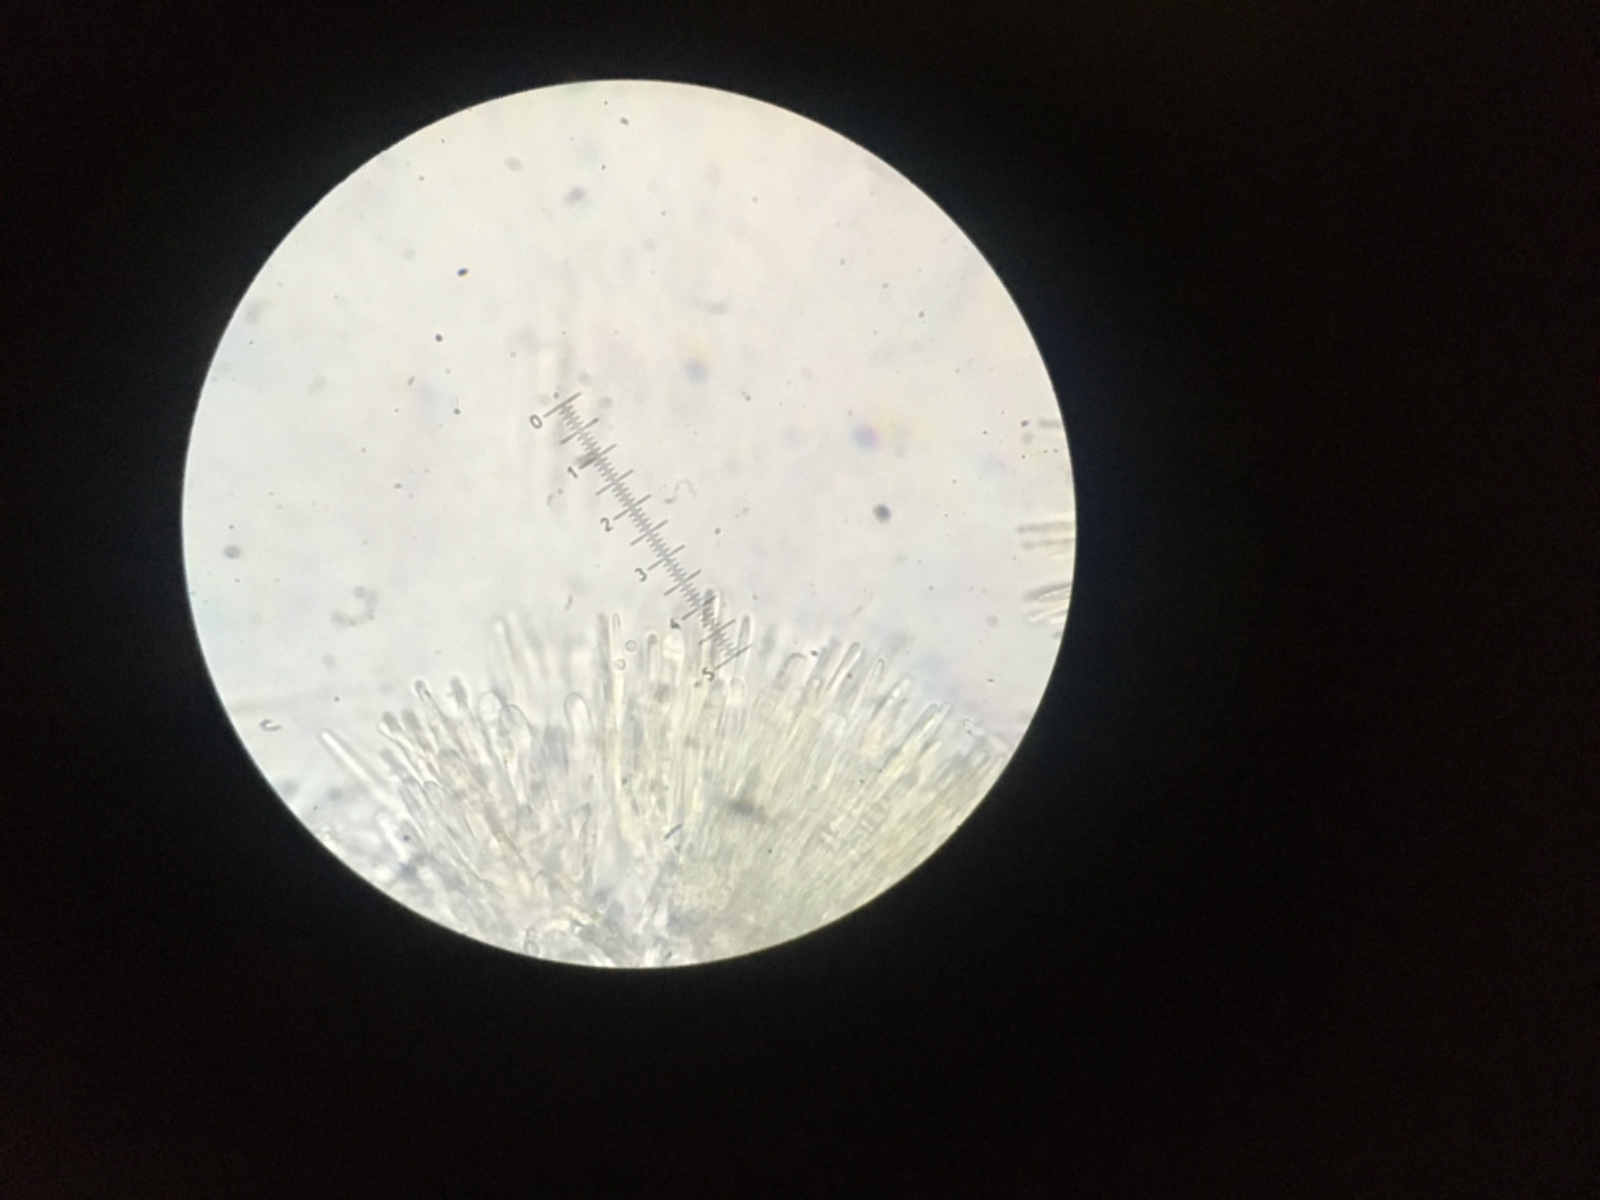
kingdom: Fungi
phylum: Ascomycota
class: Leotiomycetes
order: Helotiales
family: Lachnaceae
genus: Lachnellula
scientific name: Lachnellula calycina
